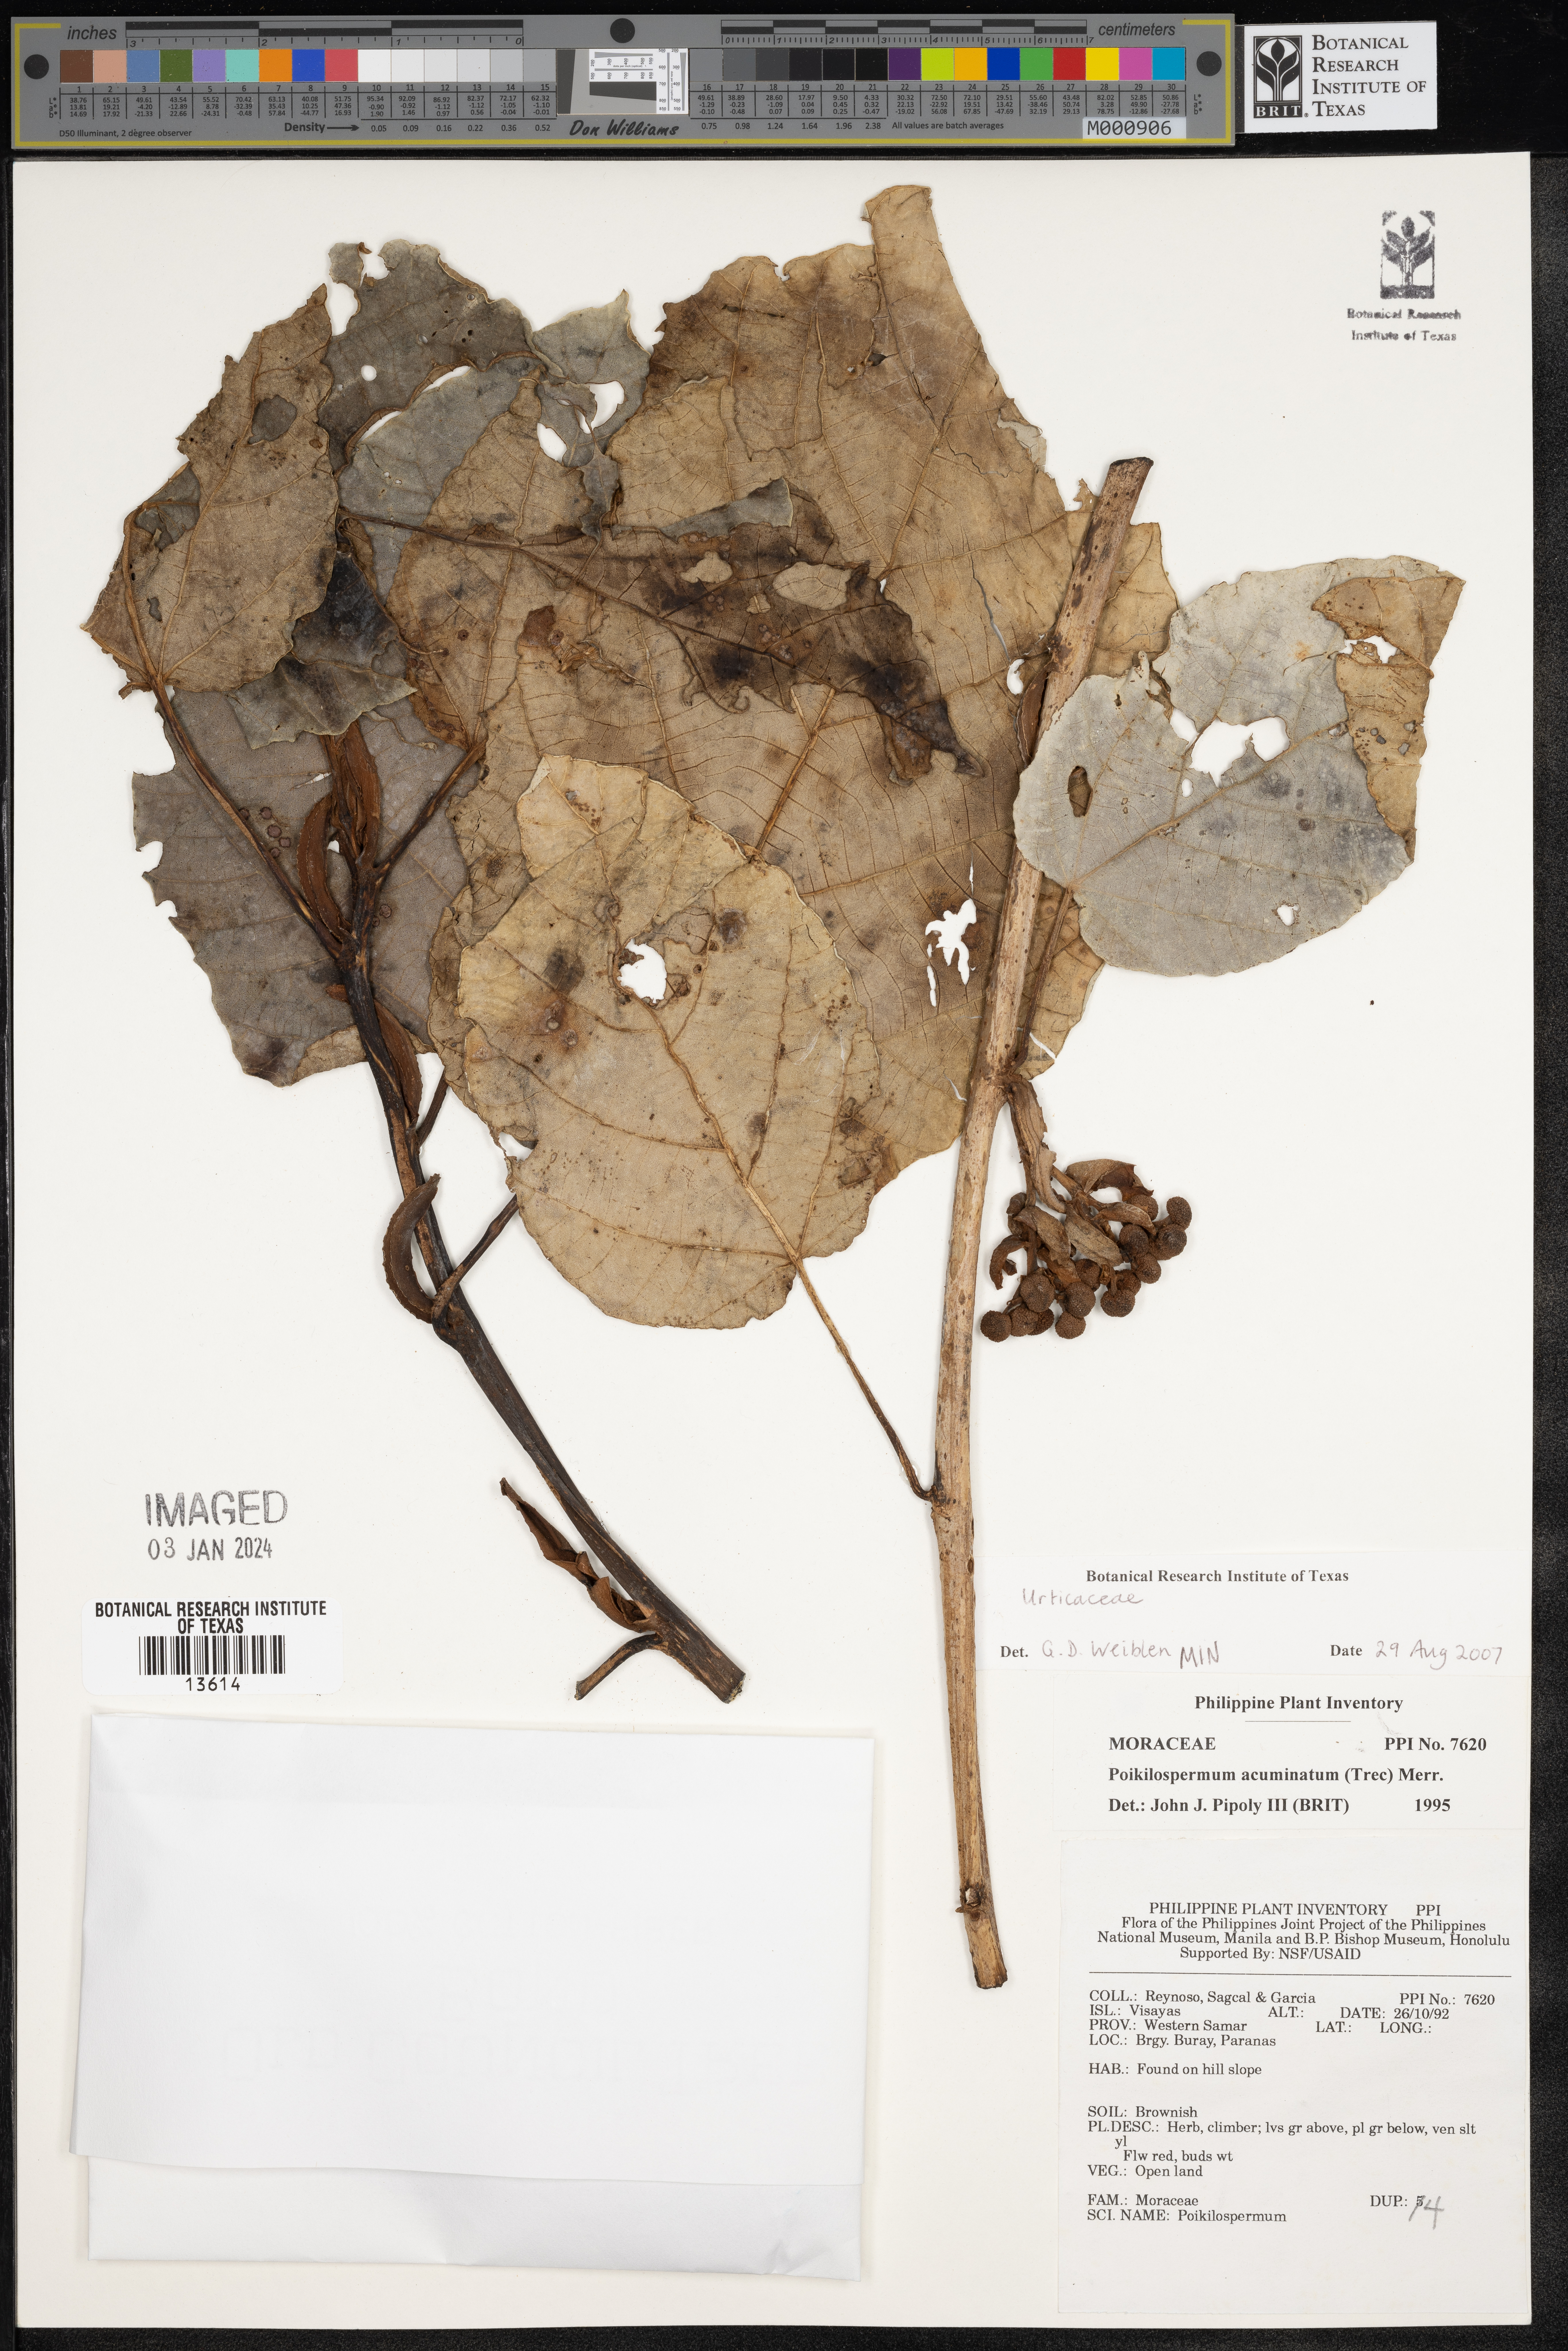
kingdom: Plantae
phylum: Tracheophyta
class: Magnoliopsida
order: Rosales
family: Urticaceae
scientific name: Urticaceae
